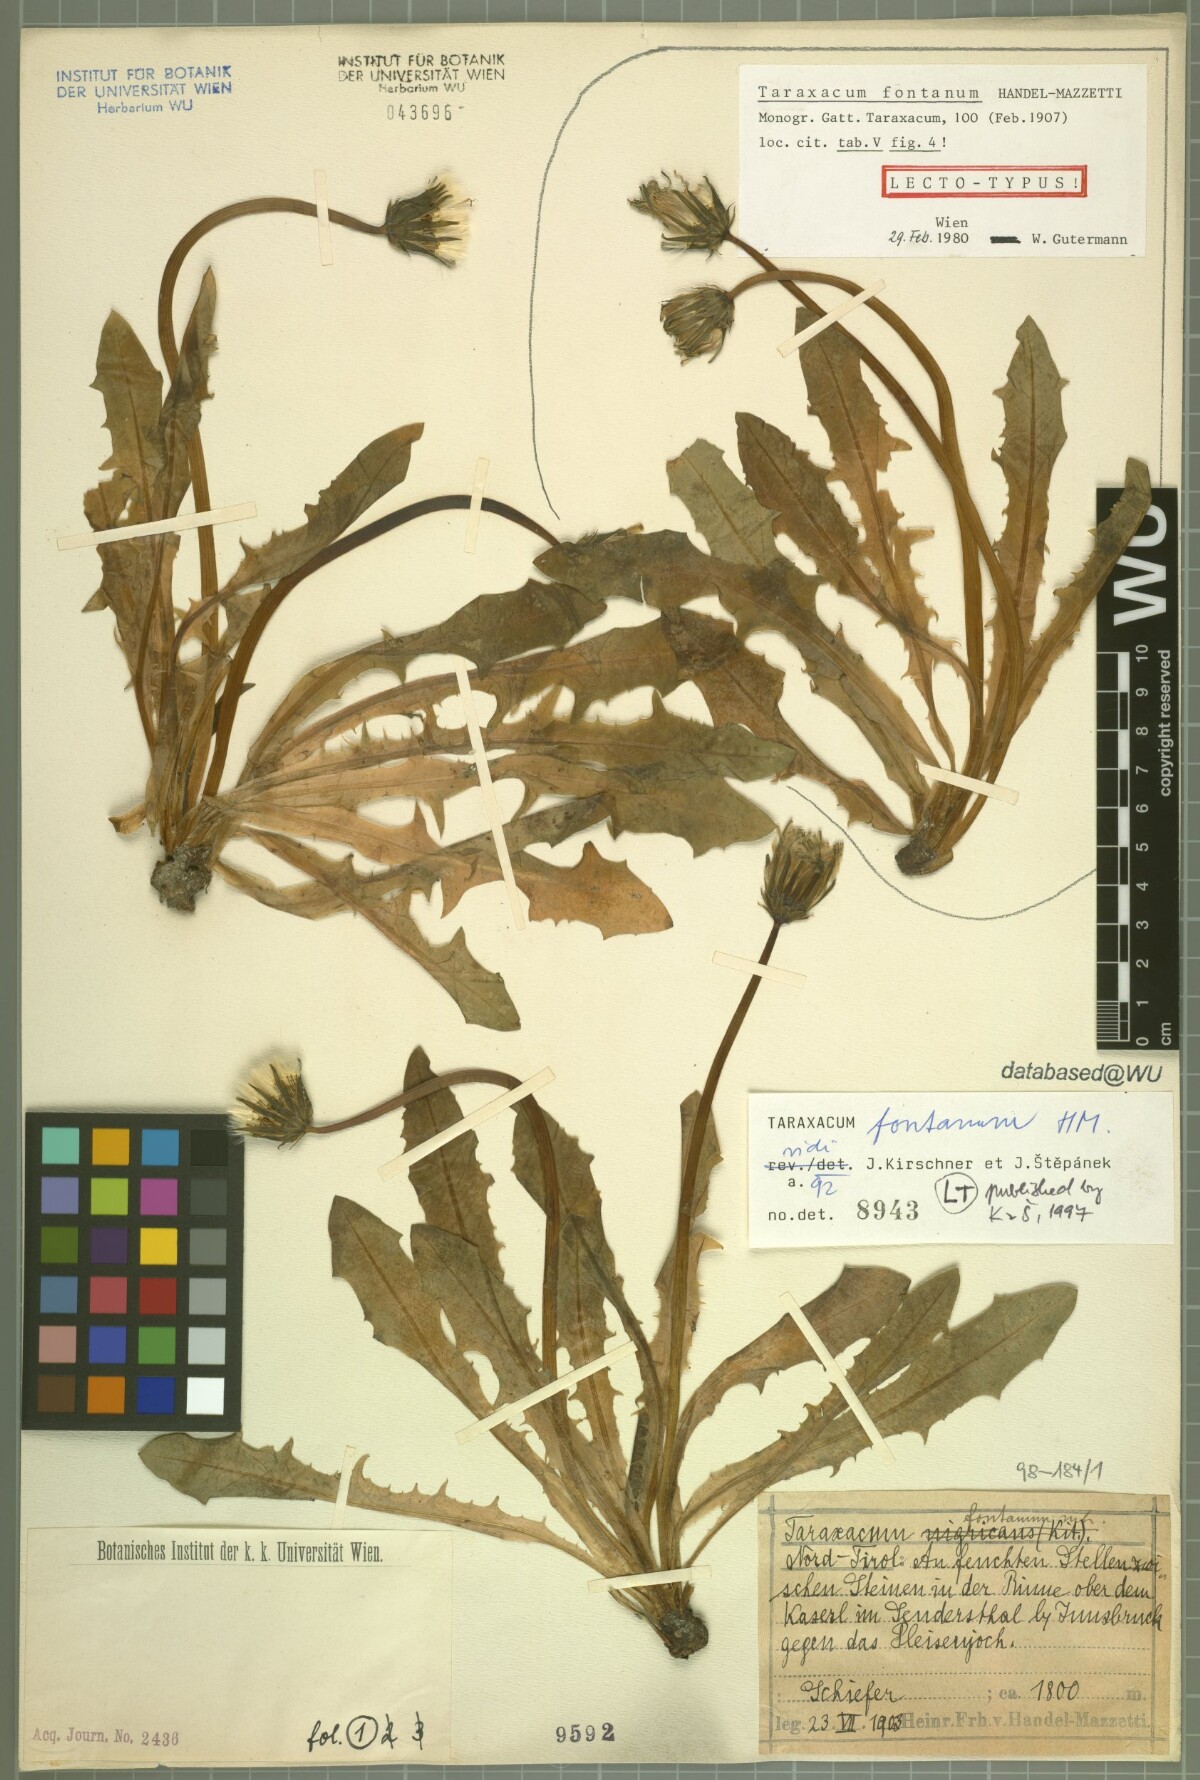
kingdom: Plantae
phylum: Tracheophyta
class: Magnoliopsida
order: Asterales
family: Asteraceae
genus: Taraxacum
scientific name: Taraxacum fontanum
